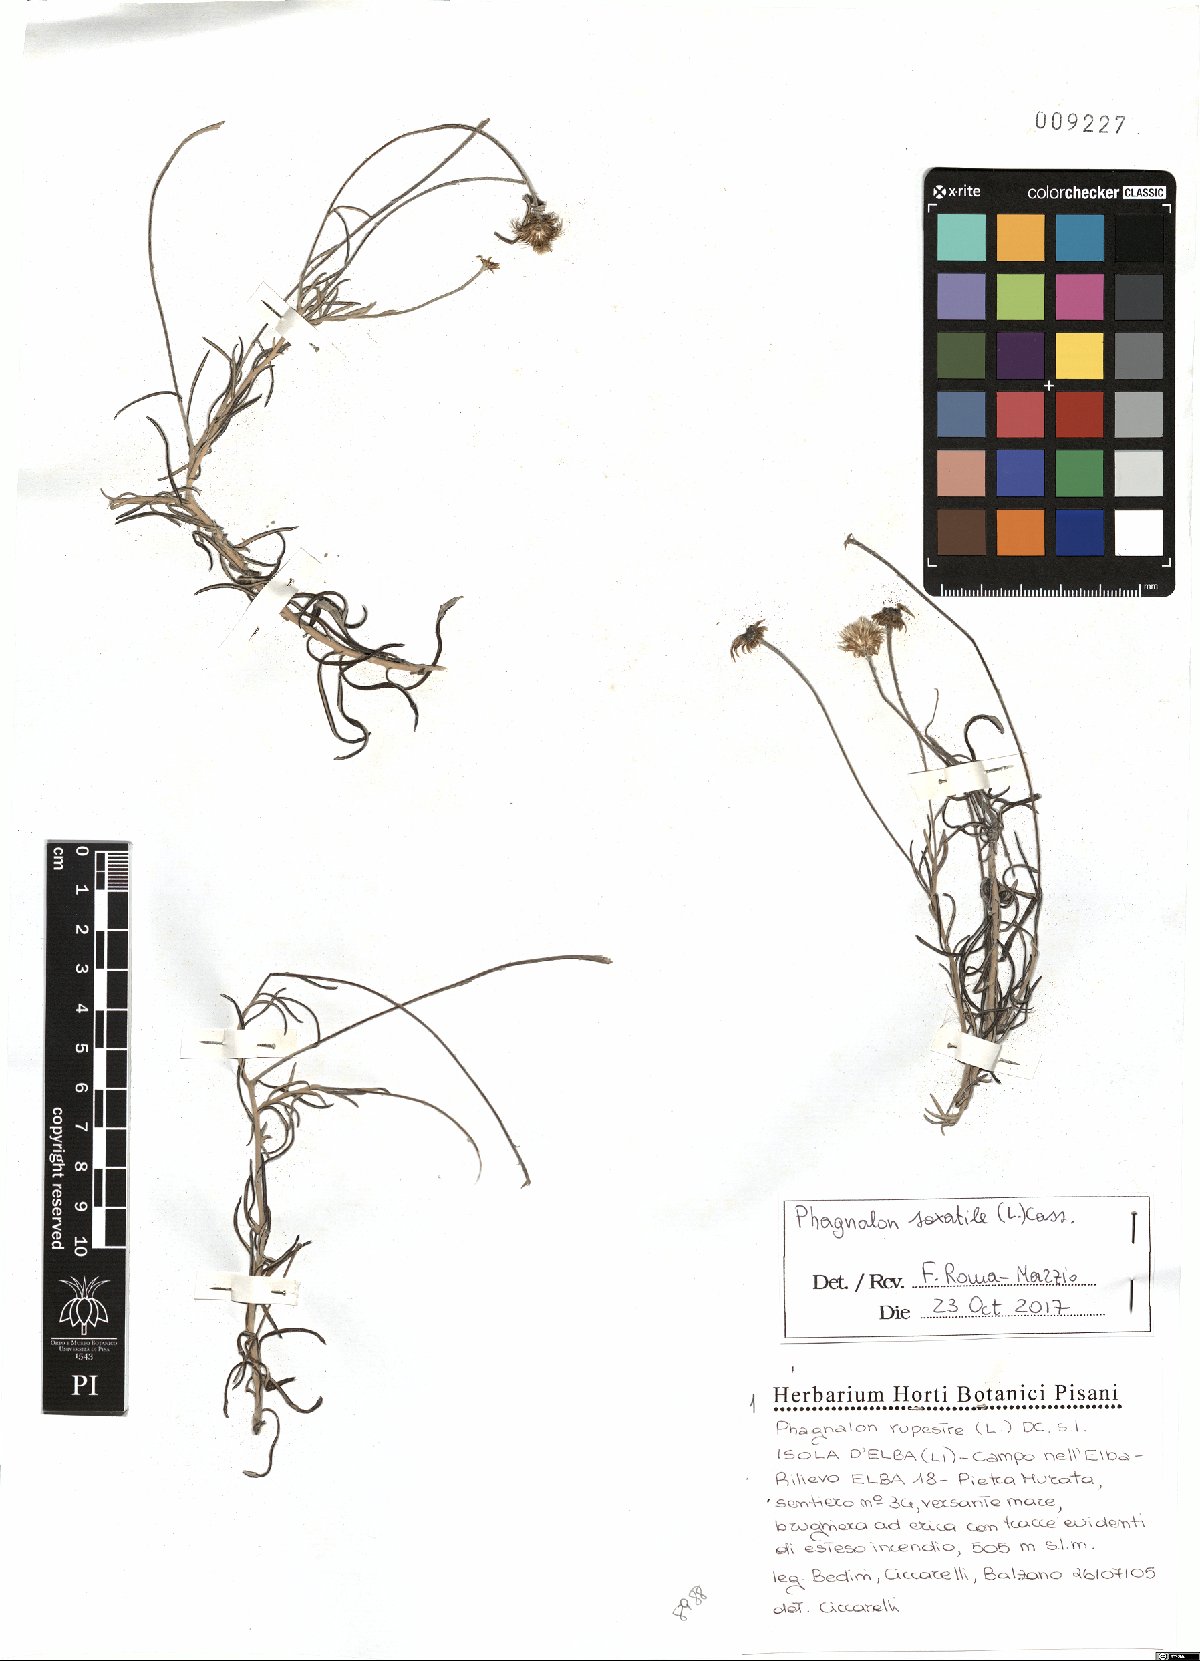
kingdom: Plantae
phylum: Tracheophyta
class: Magnoliopsida
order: Asterales
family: Asteraceae
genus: Phagnalon
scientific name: Phagnalon saxatile
